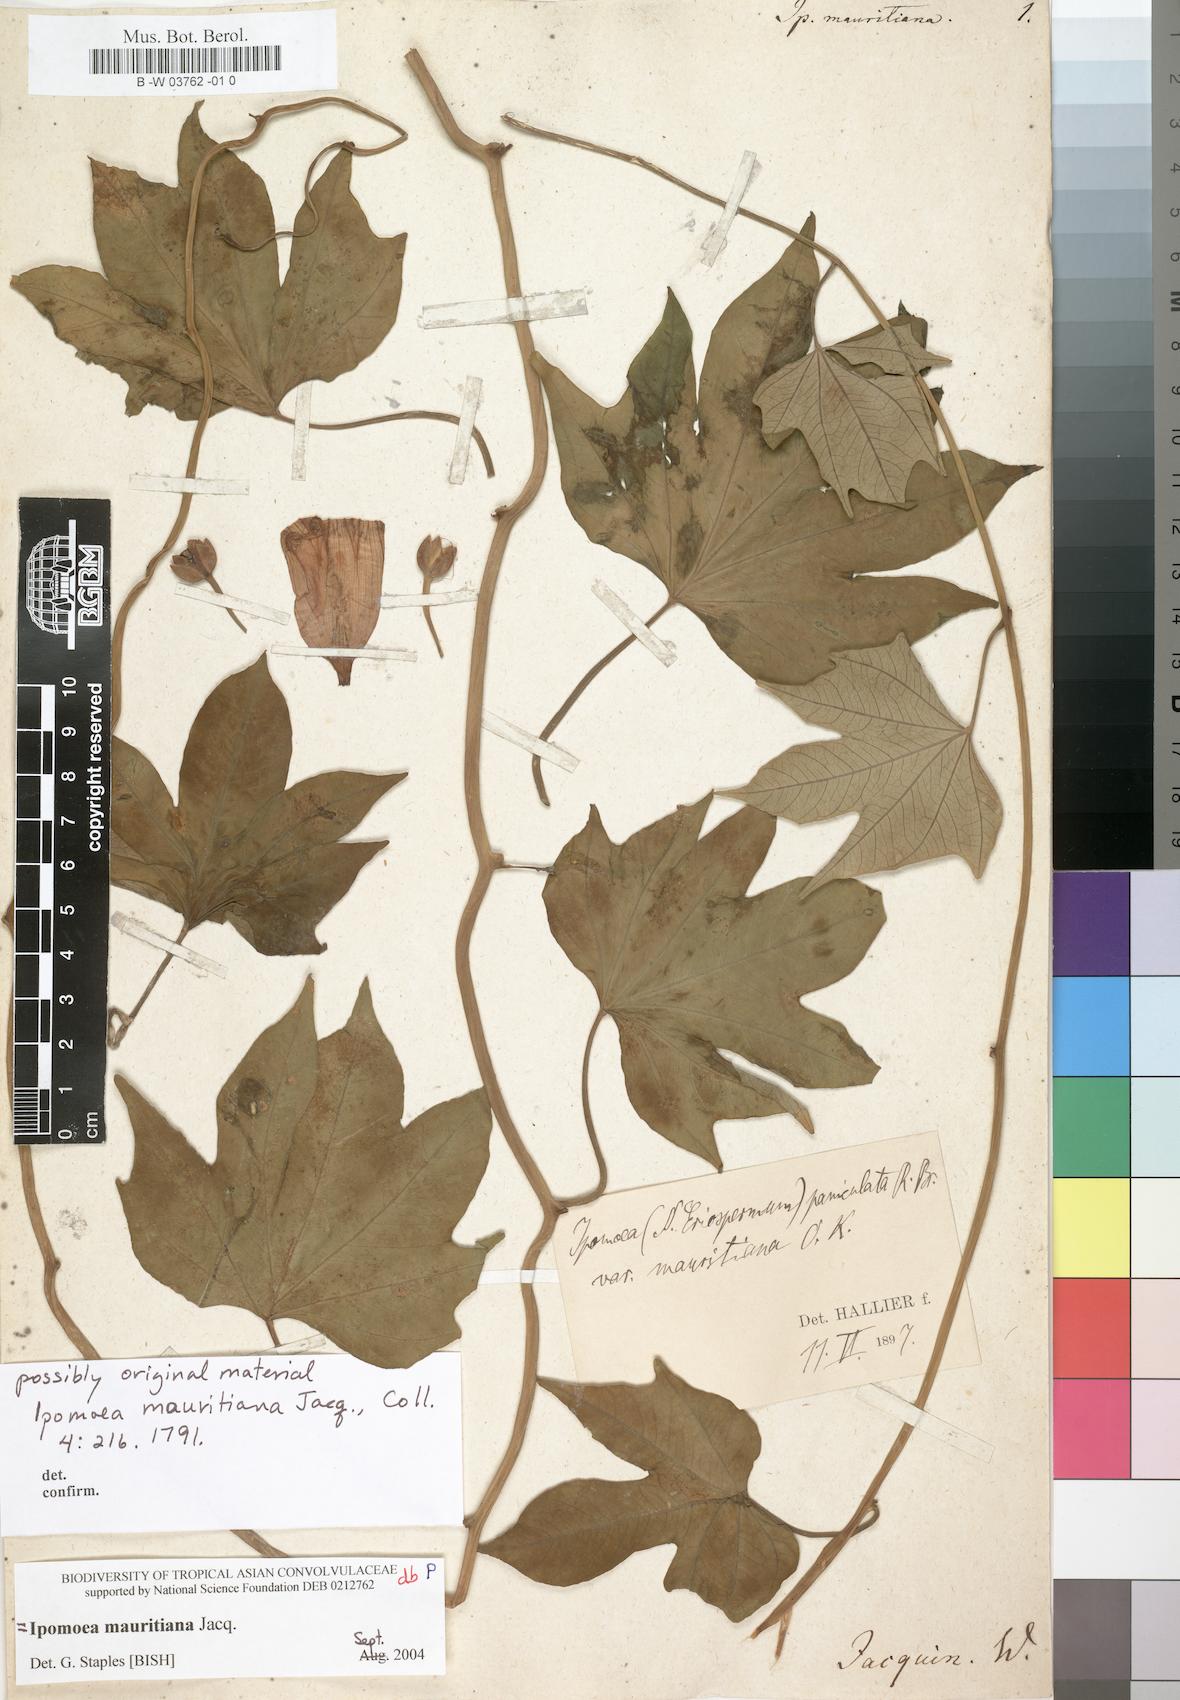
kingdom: Plantae
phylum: Tracheophyta
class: Magnoliopsida
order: Solanales
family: Convolvulaceae
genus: Ipomoea
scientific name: Ipomoea mauritiana
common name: Mauritanian convolvulus
